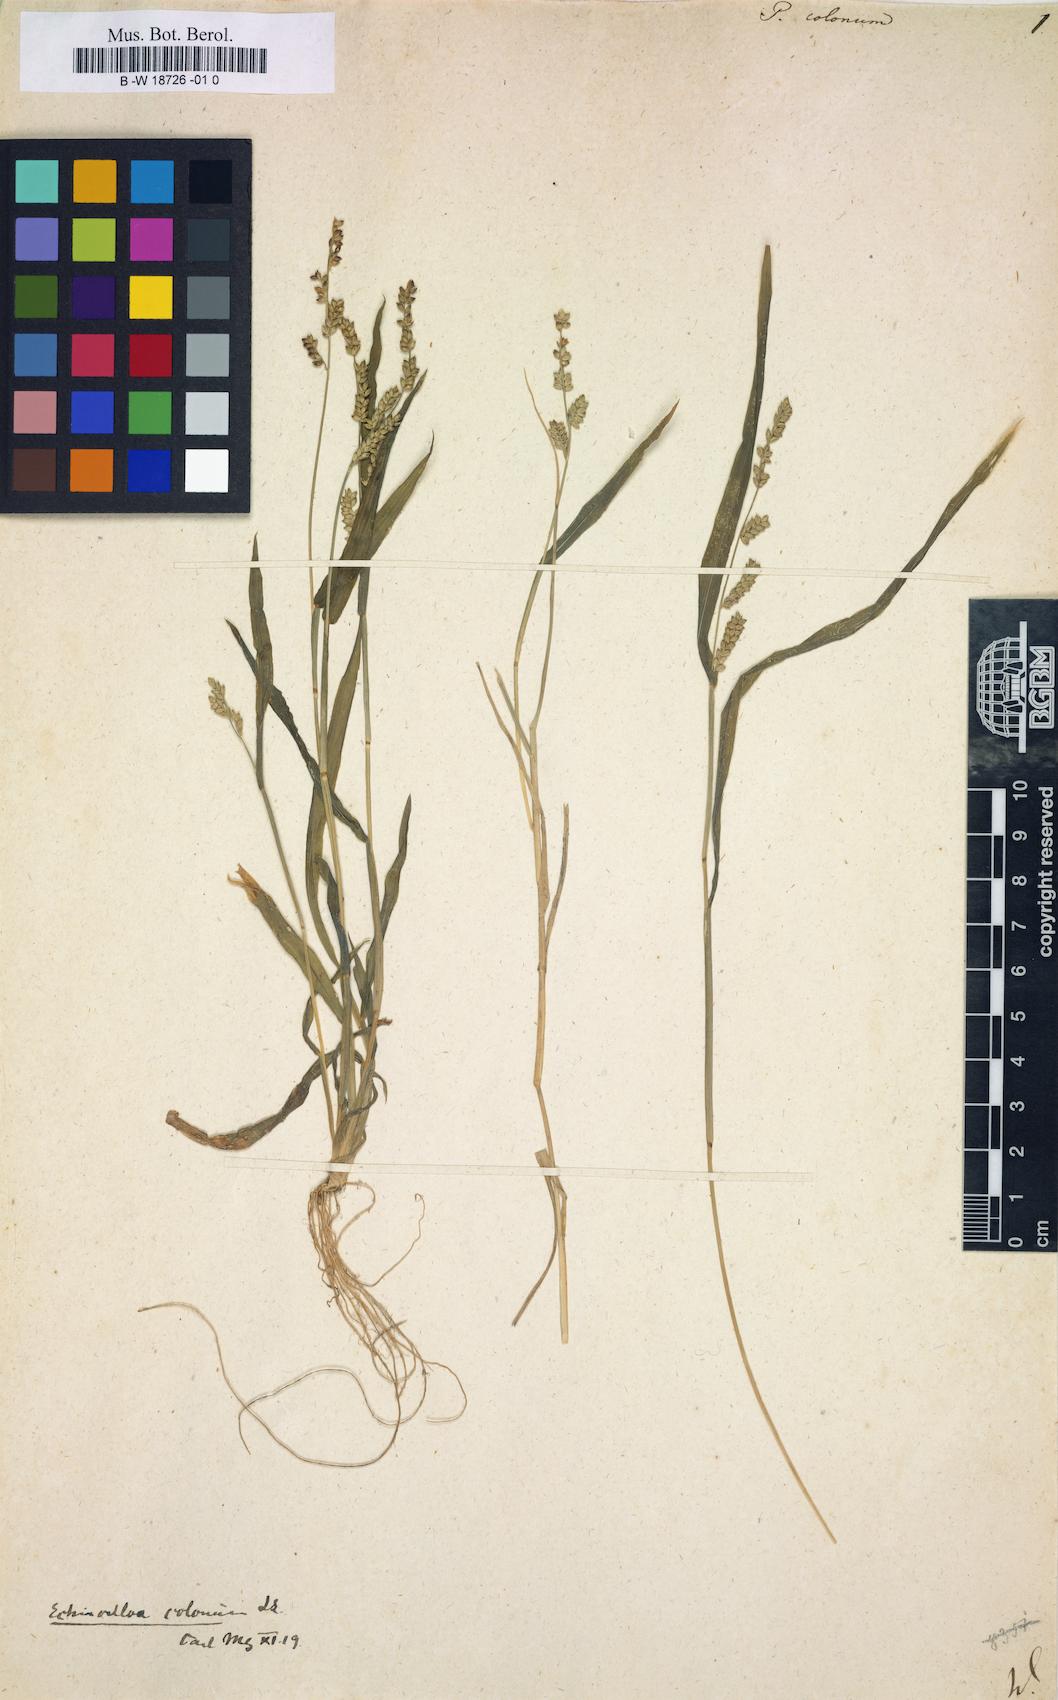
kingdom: Plantae
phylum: Tracheophyta
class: Liliopsida
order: Poales
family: Poaceae
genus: Echinochloa
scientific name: Echinochloa colonum
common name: Jungle rice
